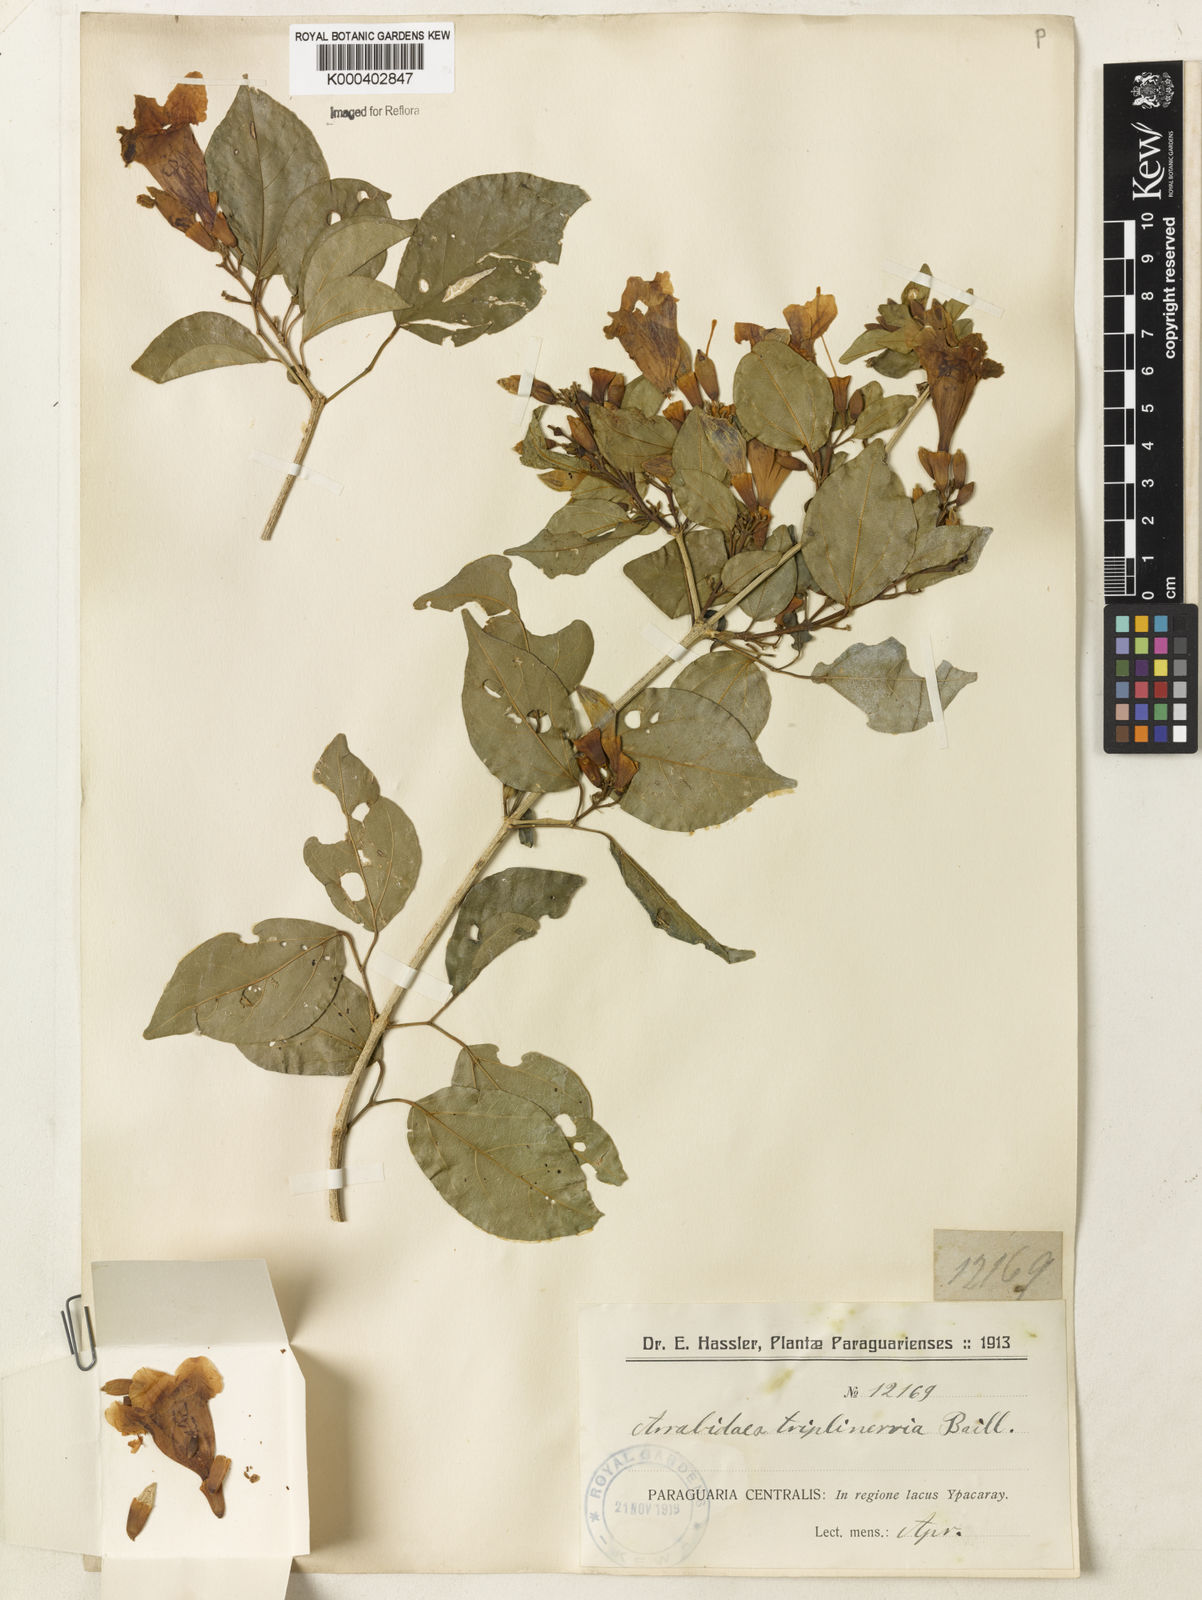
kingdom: Plantae
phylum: Tracheophyta
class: Magnoliopsida
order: Lamiales
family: Bignoniaceae
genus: Fridericia
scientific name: Fridericia triplinervia
